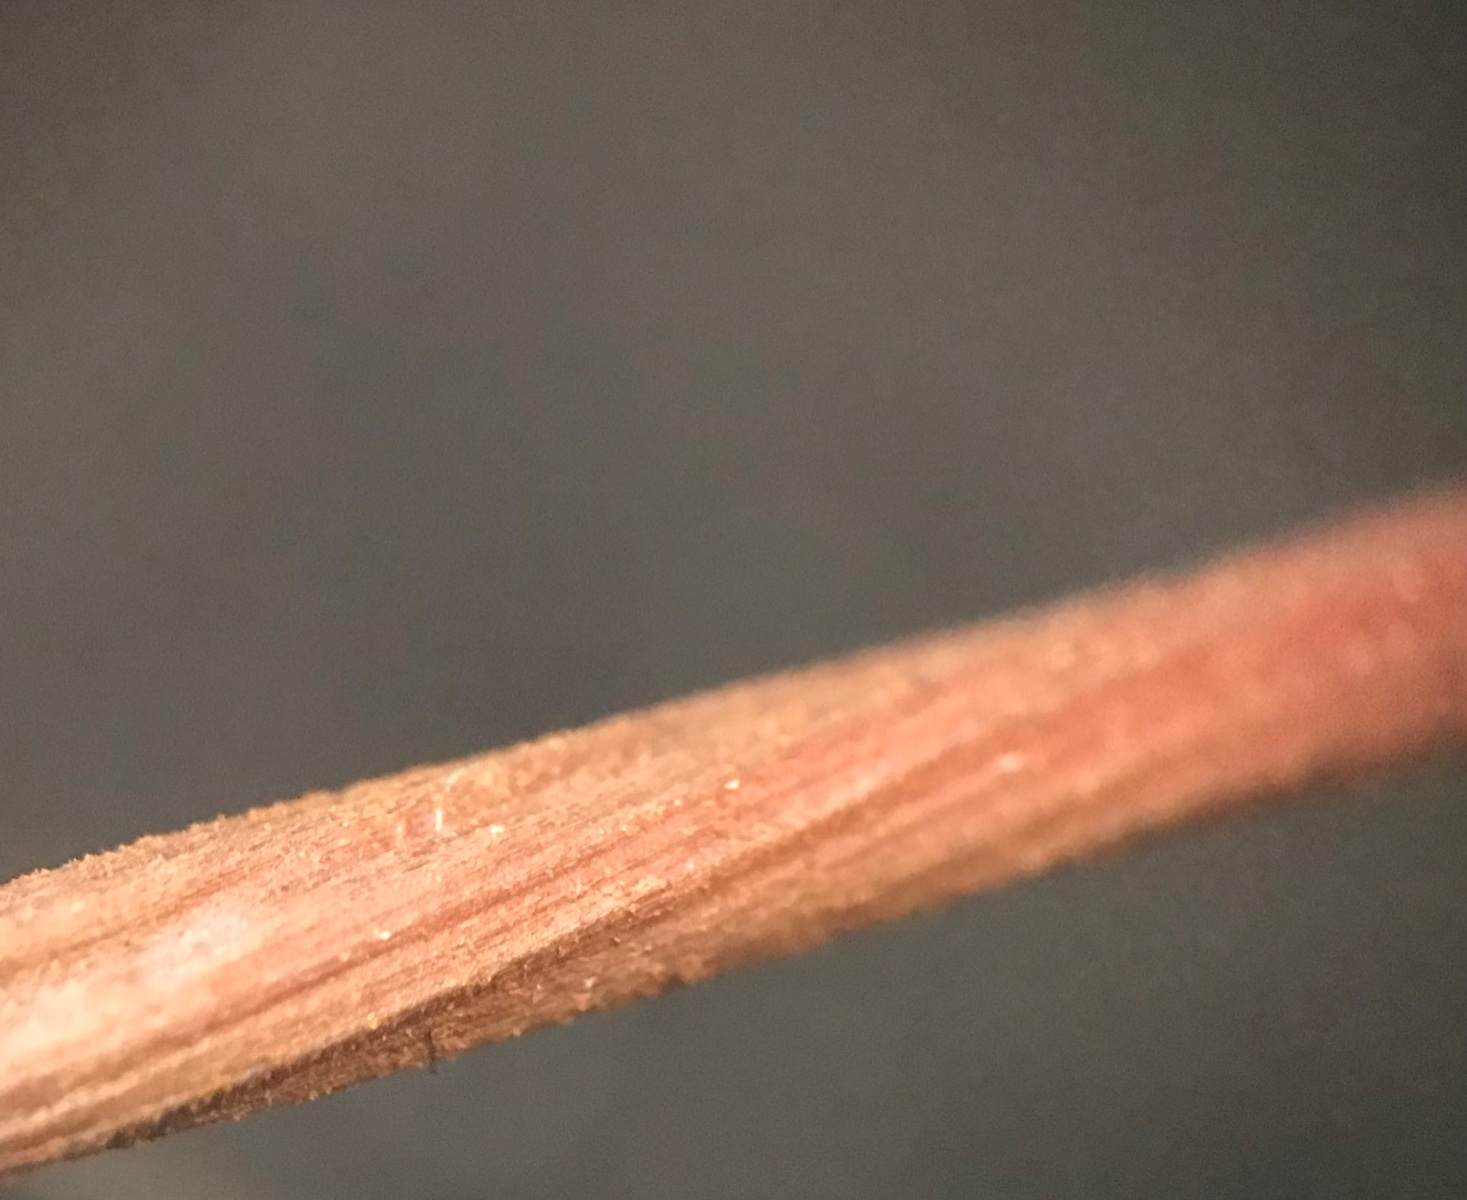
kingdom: Fungi
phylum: Basidiomycota
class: Agaricomycetes
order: Agaricales
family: Mycenaceae
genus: Xeromphalina
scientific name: Xeromphalina
